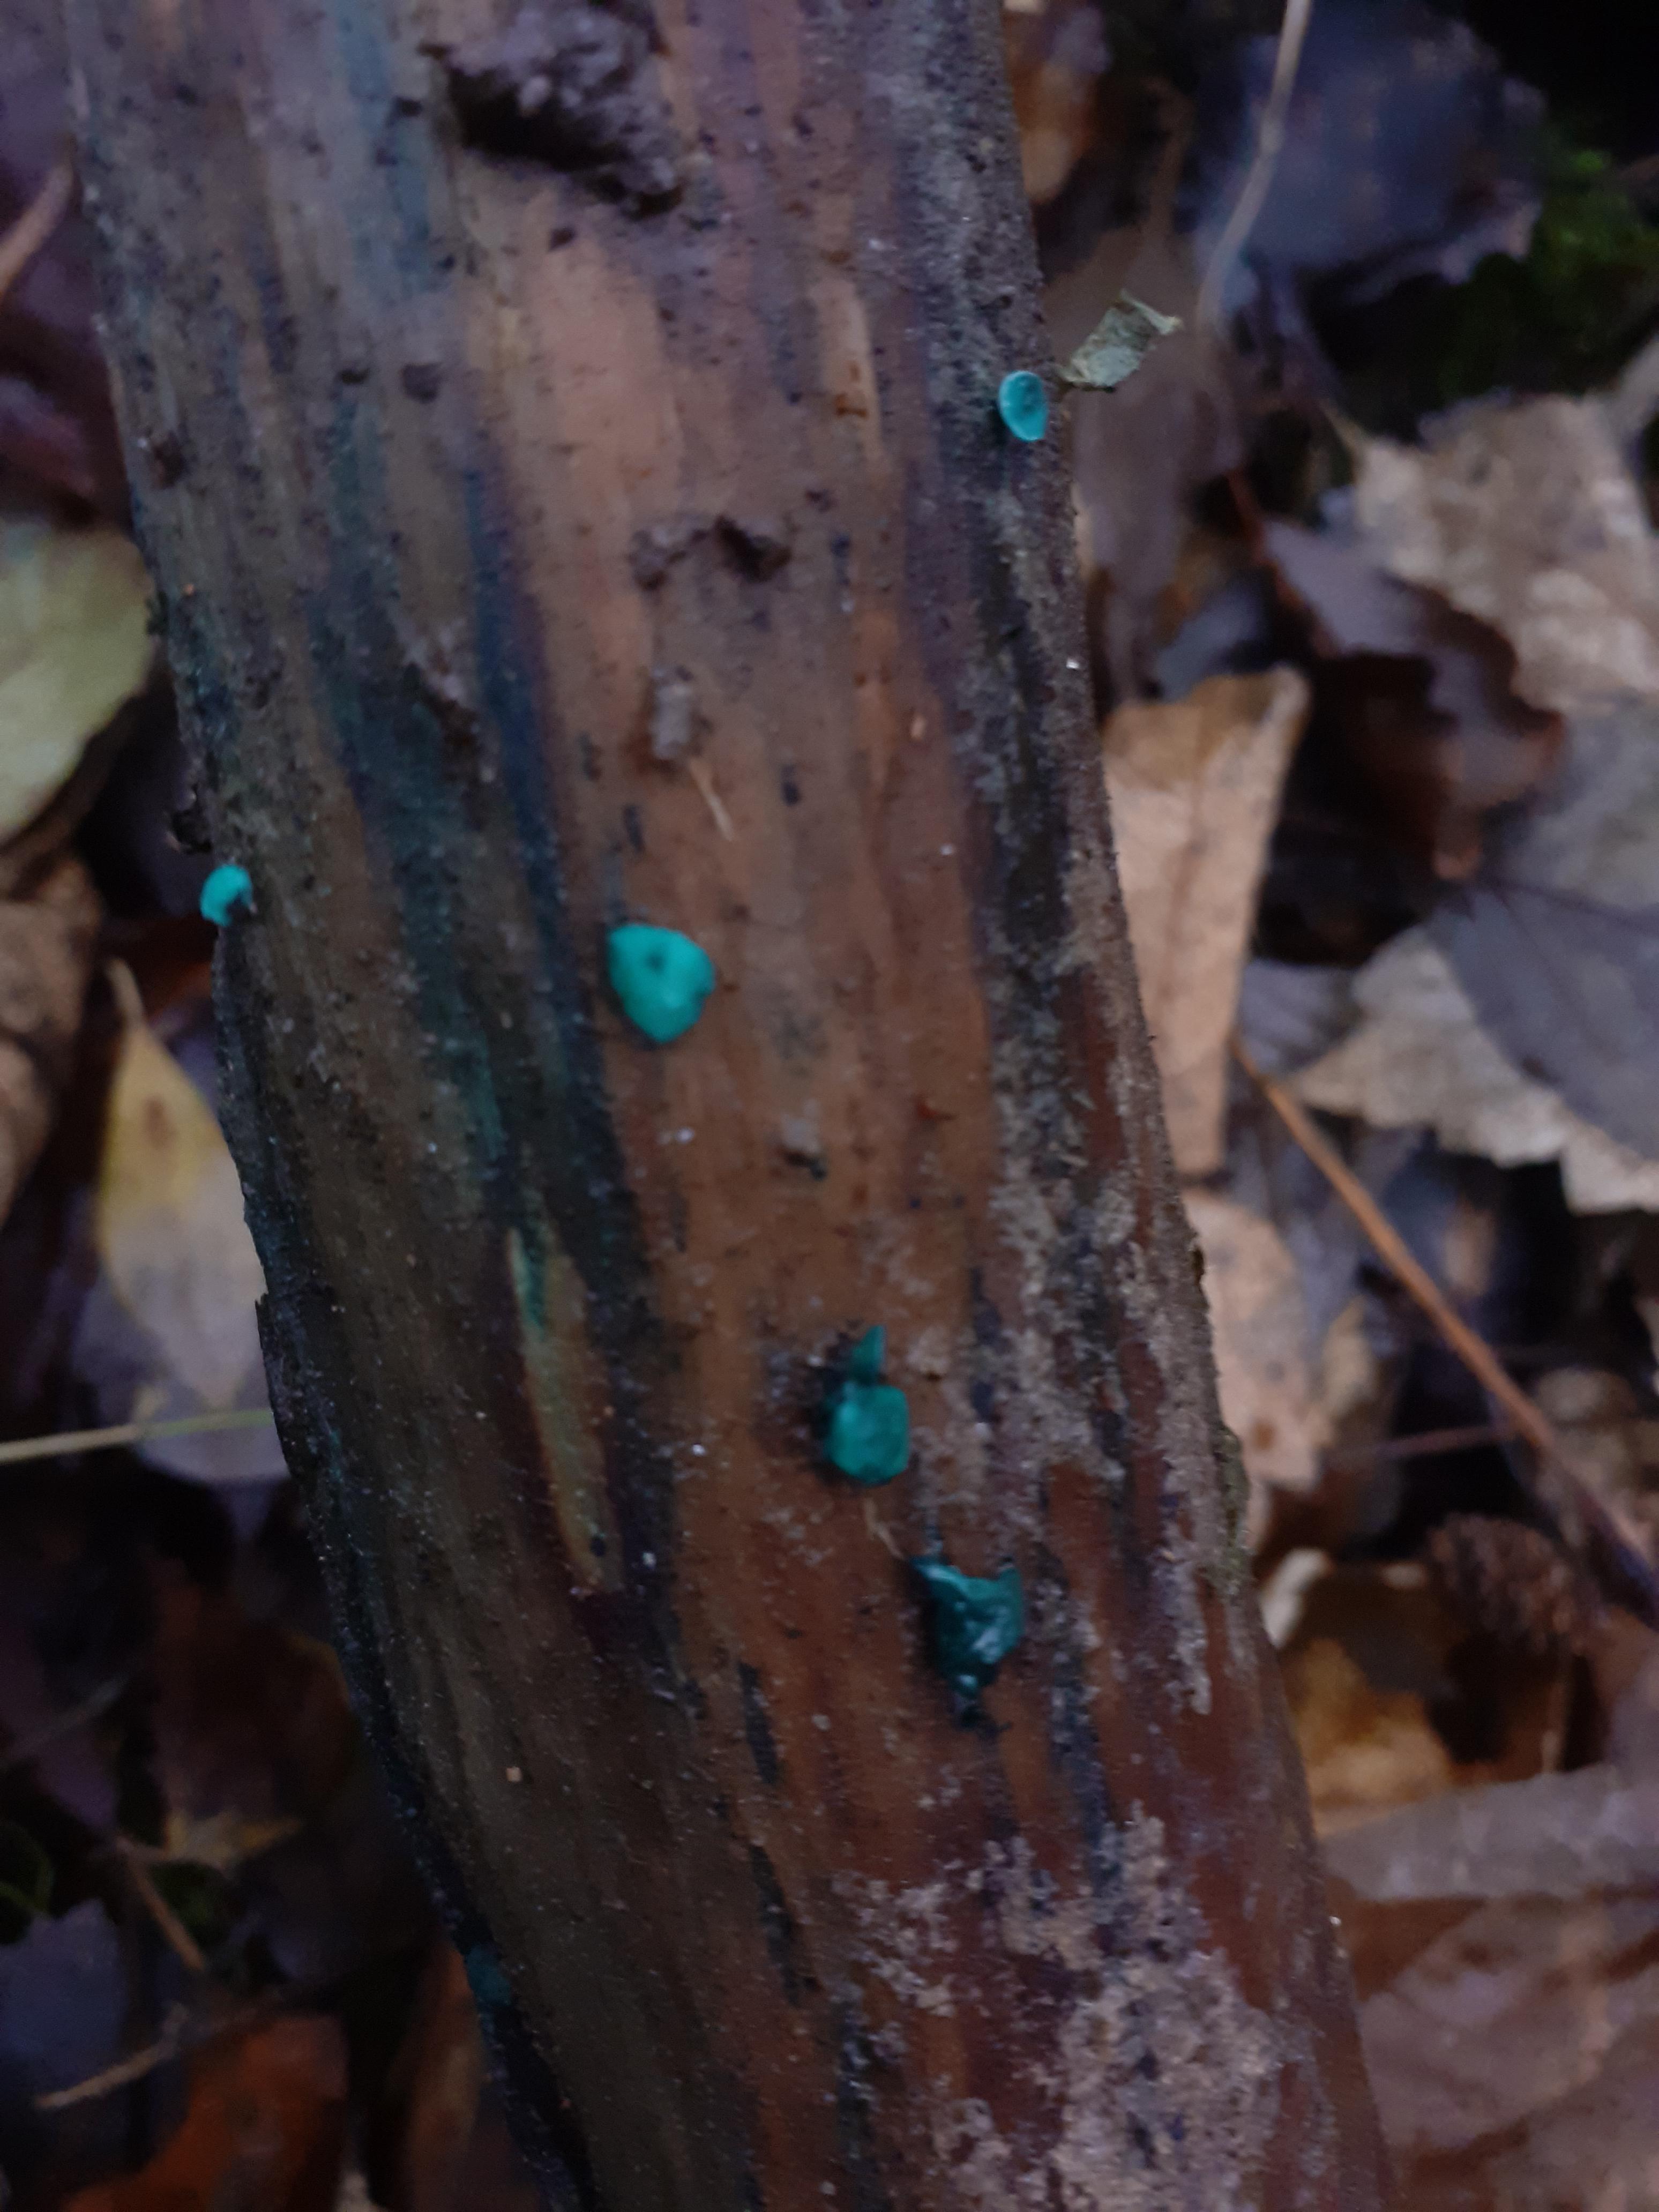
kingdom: Fungi
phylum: Ascomycota
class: Leotiomycetes
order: Helotiales
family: Chlorociboriaceae
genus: Chlorociboria
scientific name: Chlorociboria aeruginascens
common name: almindelig grønskive
